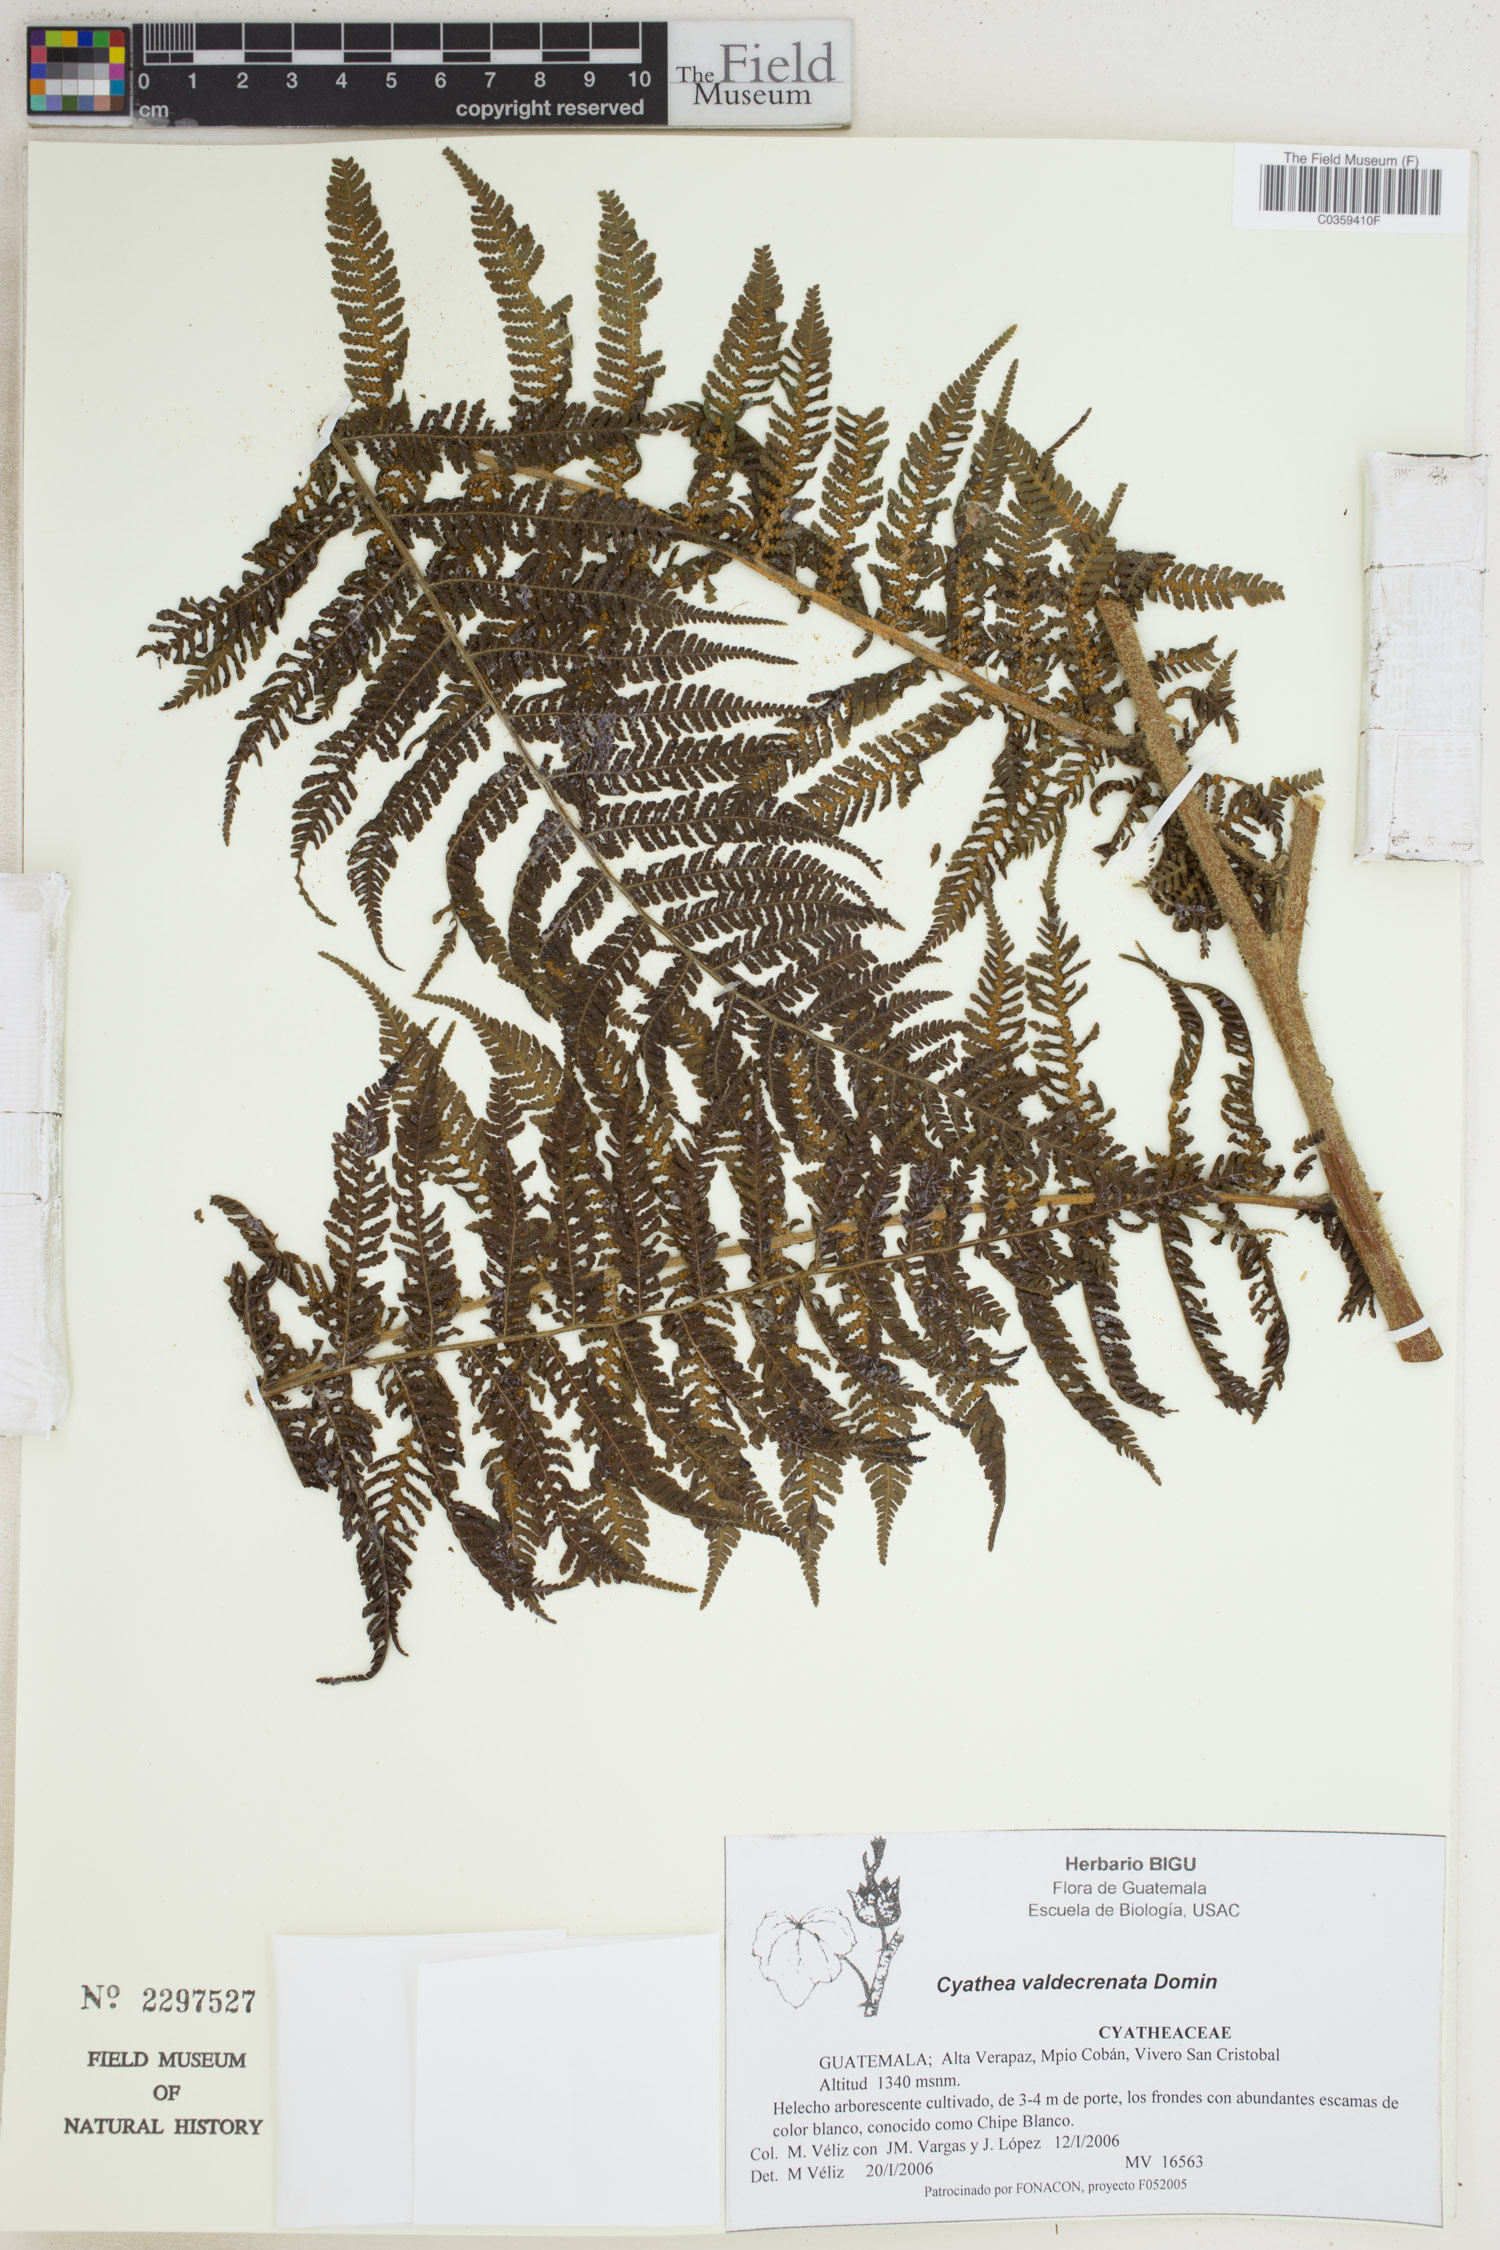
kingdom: Plantae
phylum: Tracheophyta
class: Polypodiopsida
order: Cyatheales
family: Cyatheaceae
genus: Sphaeropteris
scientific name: Sphaeropteris horrida
